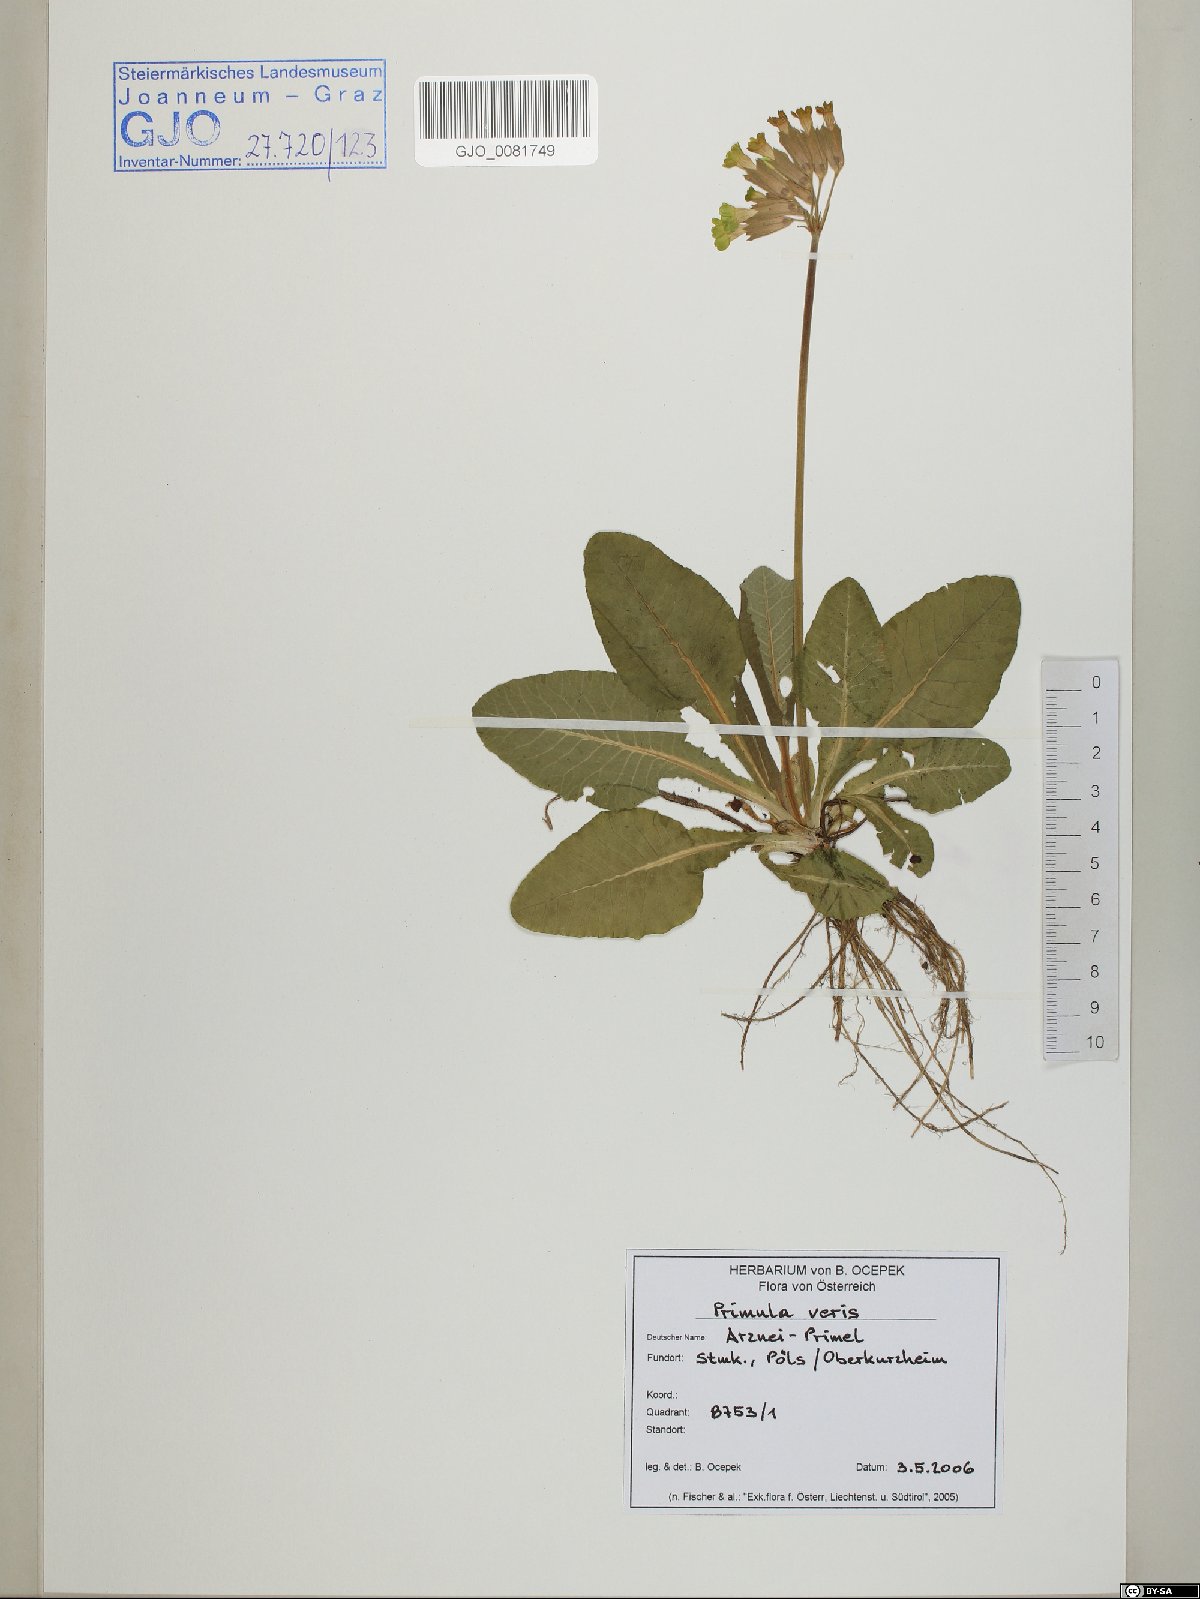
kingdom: Plantae
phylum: Tracheophyta
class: Magnoliopsida
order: Ericales
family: Primulaceae
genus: Primula
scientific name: Primula veris
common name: Cowslip
